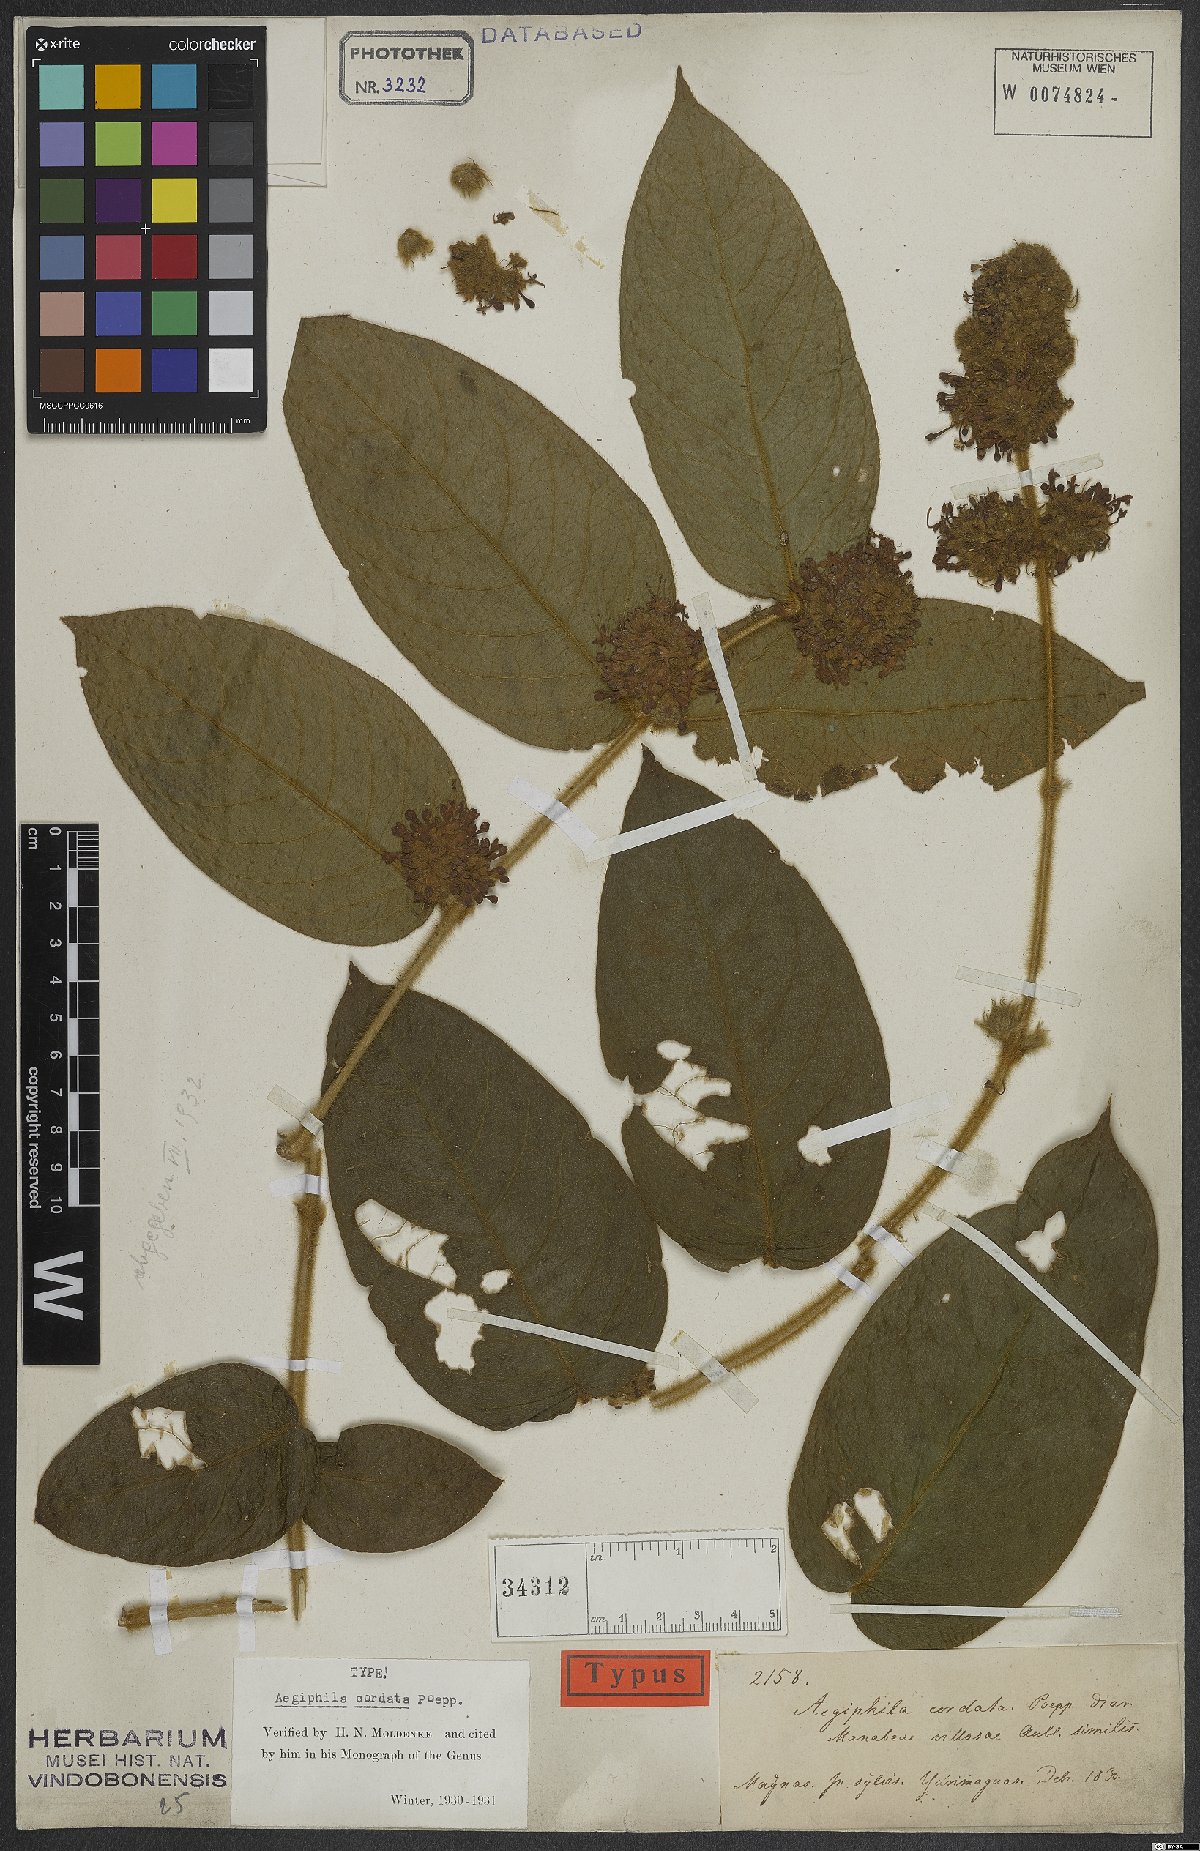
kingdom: Plantae
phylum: Tracheophyta
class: Magnoliopsida
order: Lamiales
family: Lamiaceae
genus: Aegiphila
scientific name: Aegiphila cordata
